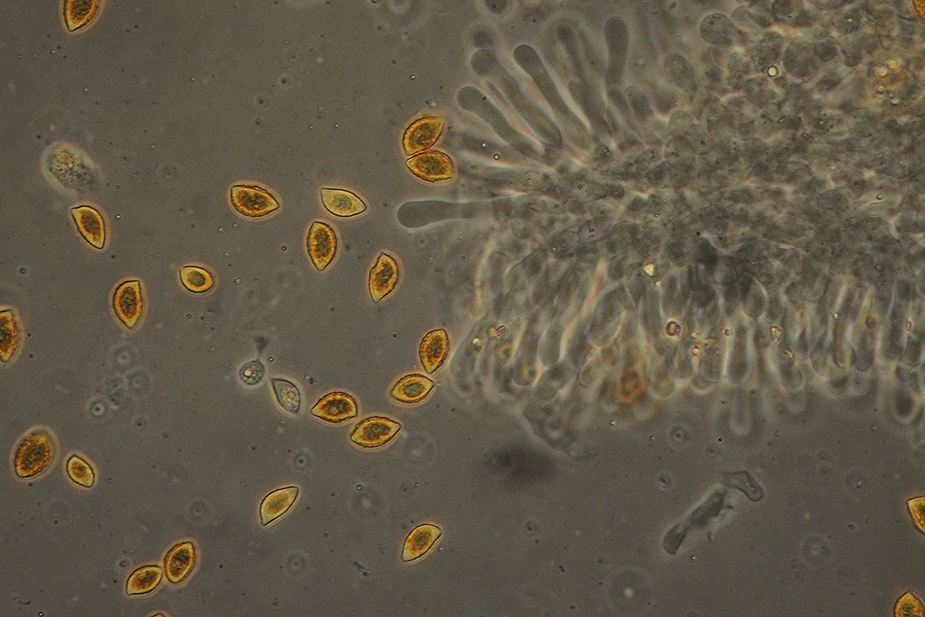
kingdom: Fungi
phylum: Basidiomycota
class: Agaricomycetes
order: Agaricales
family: Hymenogastraceae
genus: Naucoria
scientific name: Naucoria bohemica
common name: birke-knaphat
